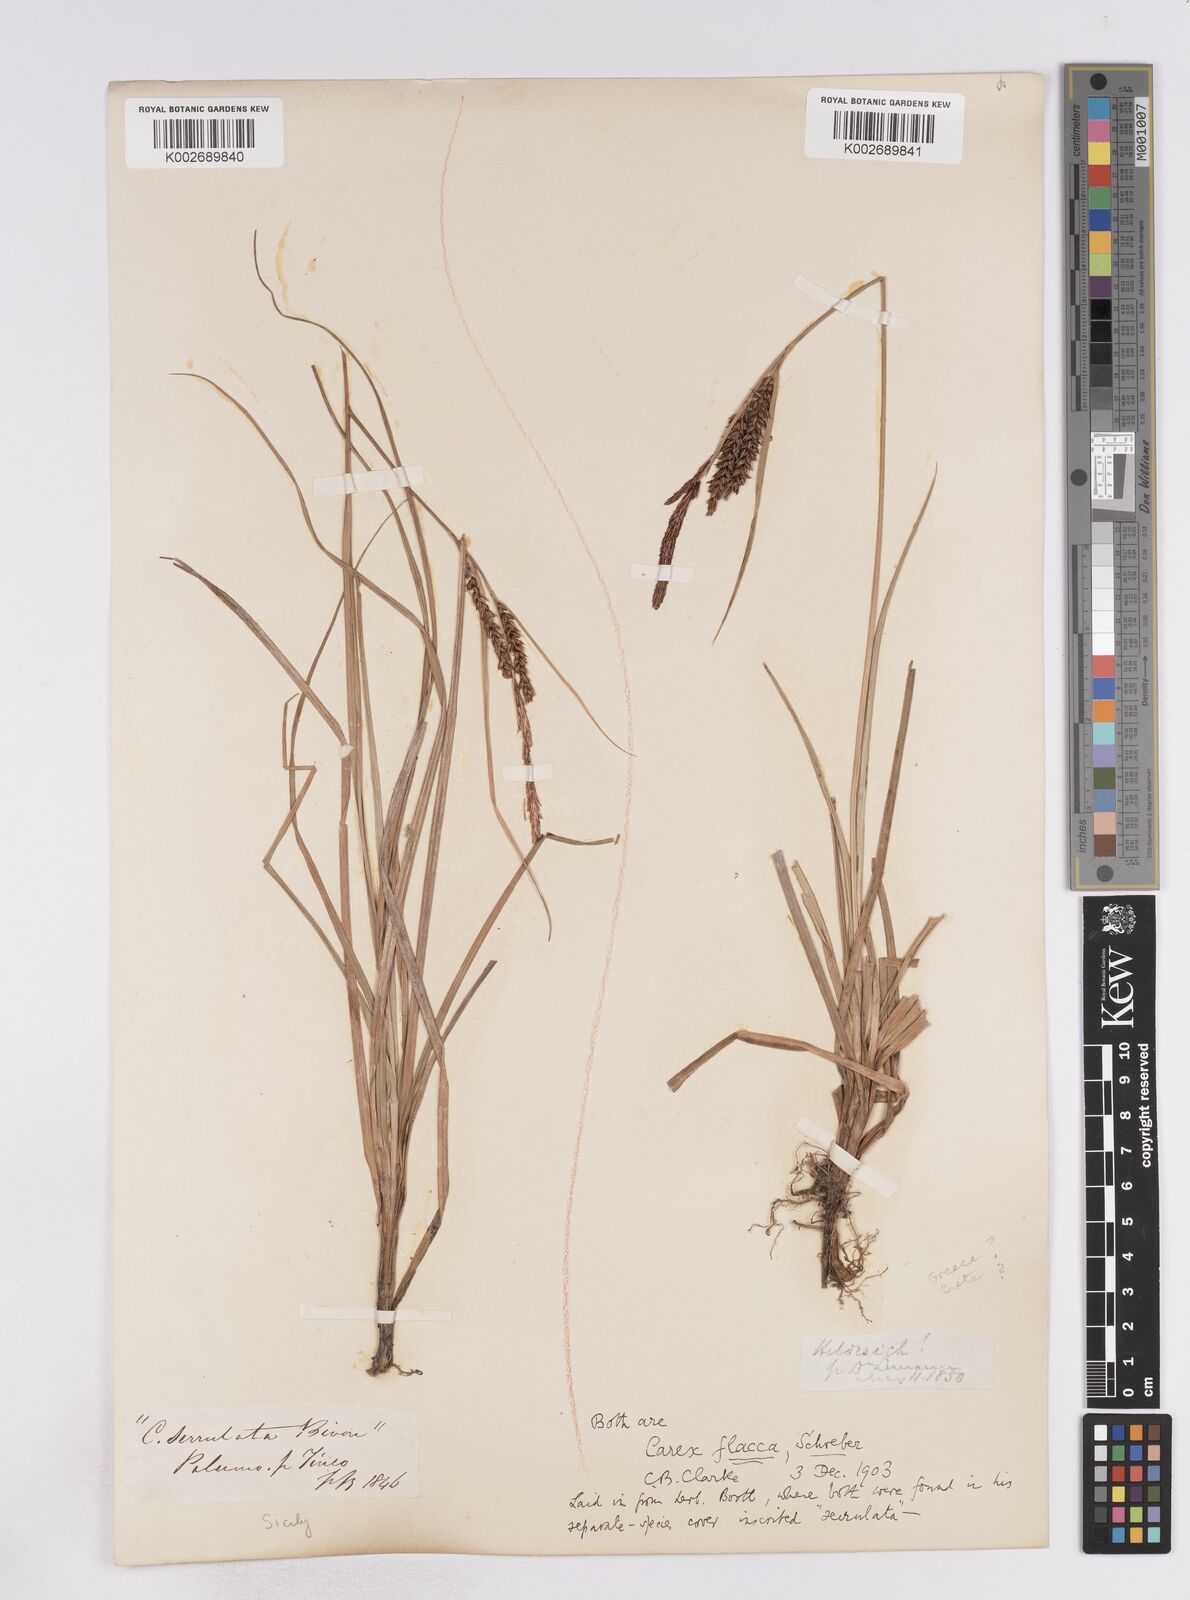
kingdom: Plantae
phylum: Tracheophyta
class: Liliopsida
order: Poales
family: Cyperaceae
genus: Carex
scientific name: Carex flacca
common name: Glaucous sedge
